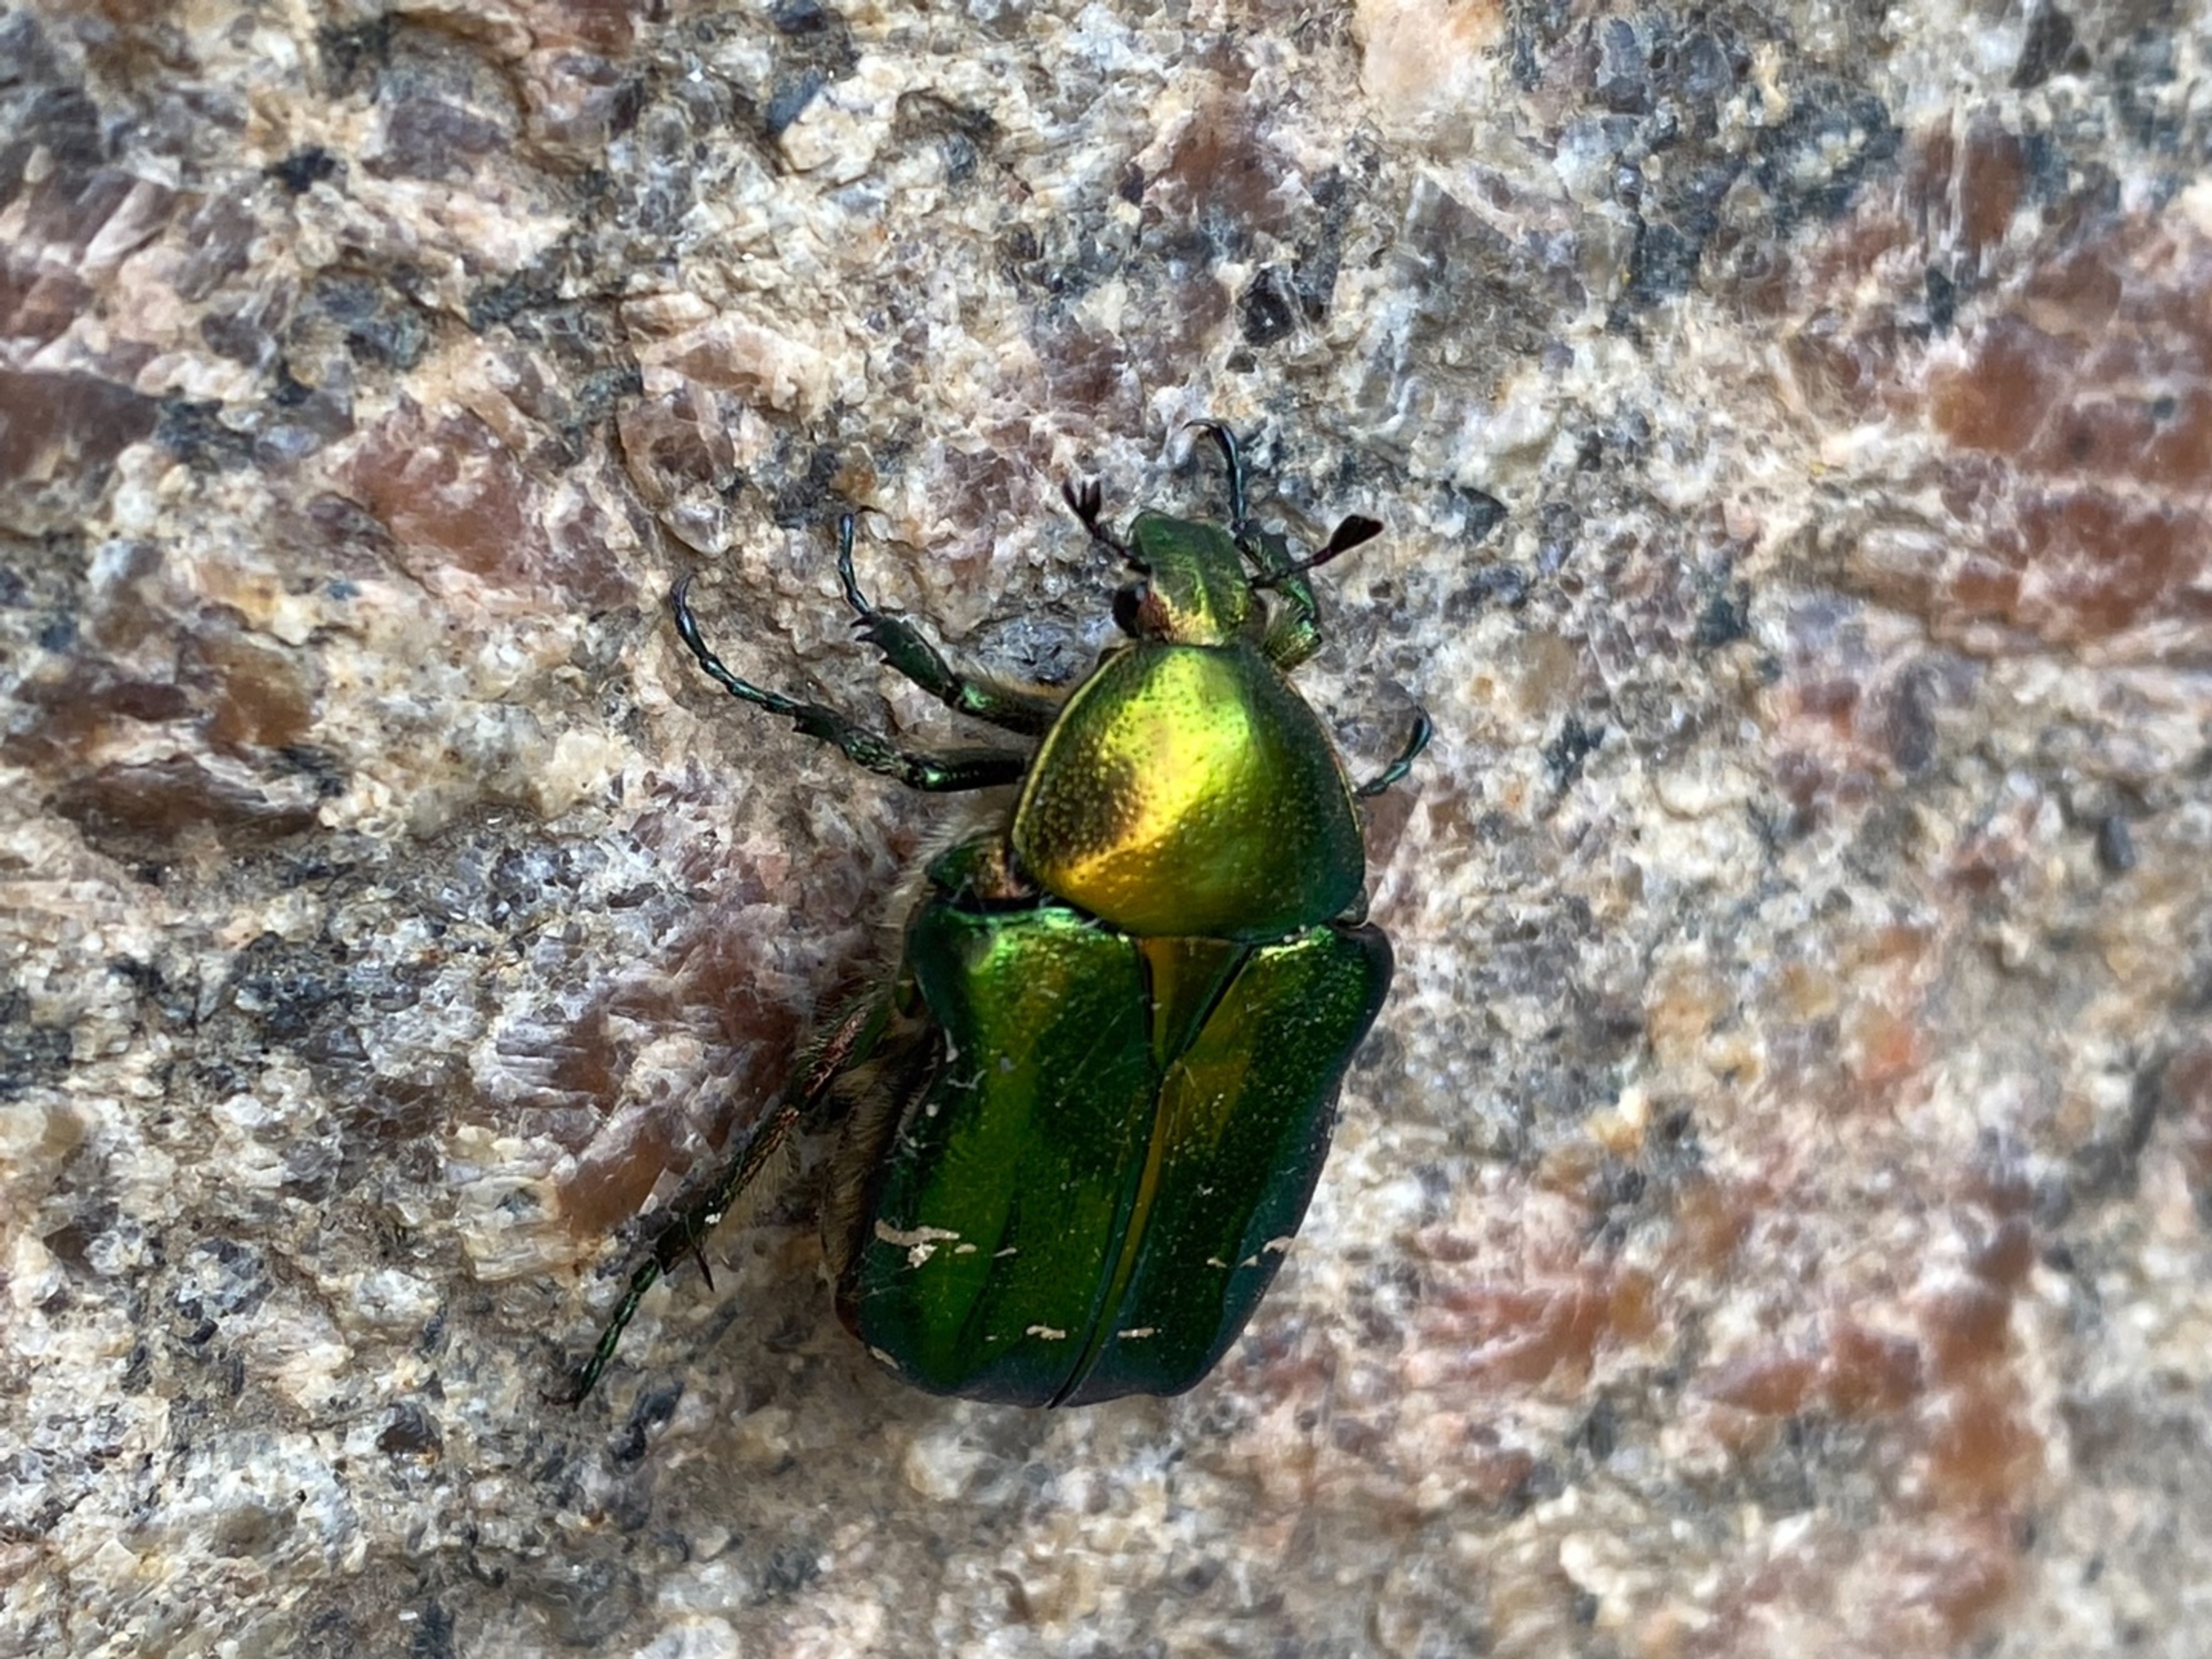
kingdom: Animalia
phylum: Arthropoda
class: Insecta
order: Coleoptera
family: Scarabaeidae
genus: Cetonia
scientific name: Cetonia aurata
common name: Grøn guldbasse
